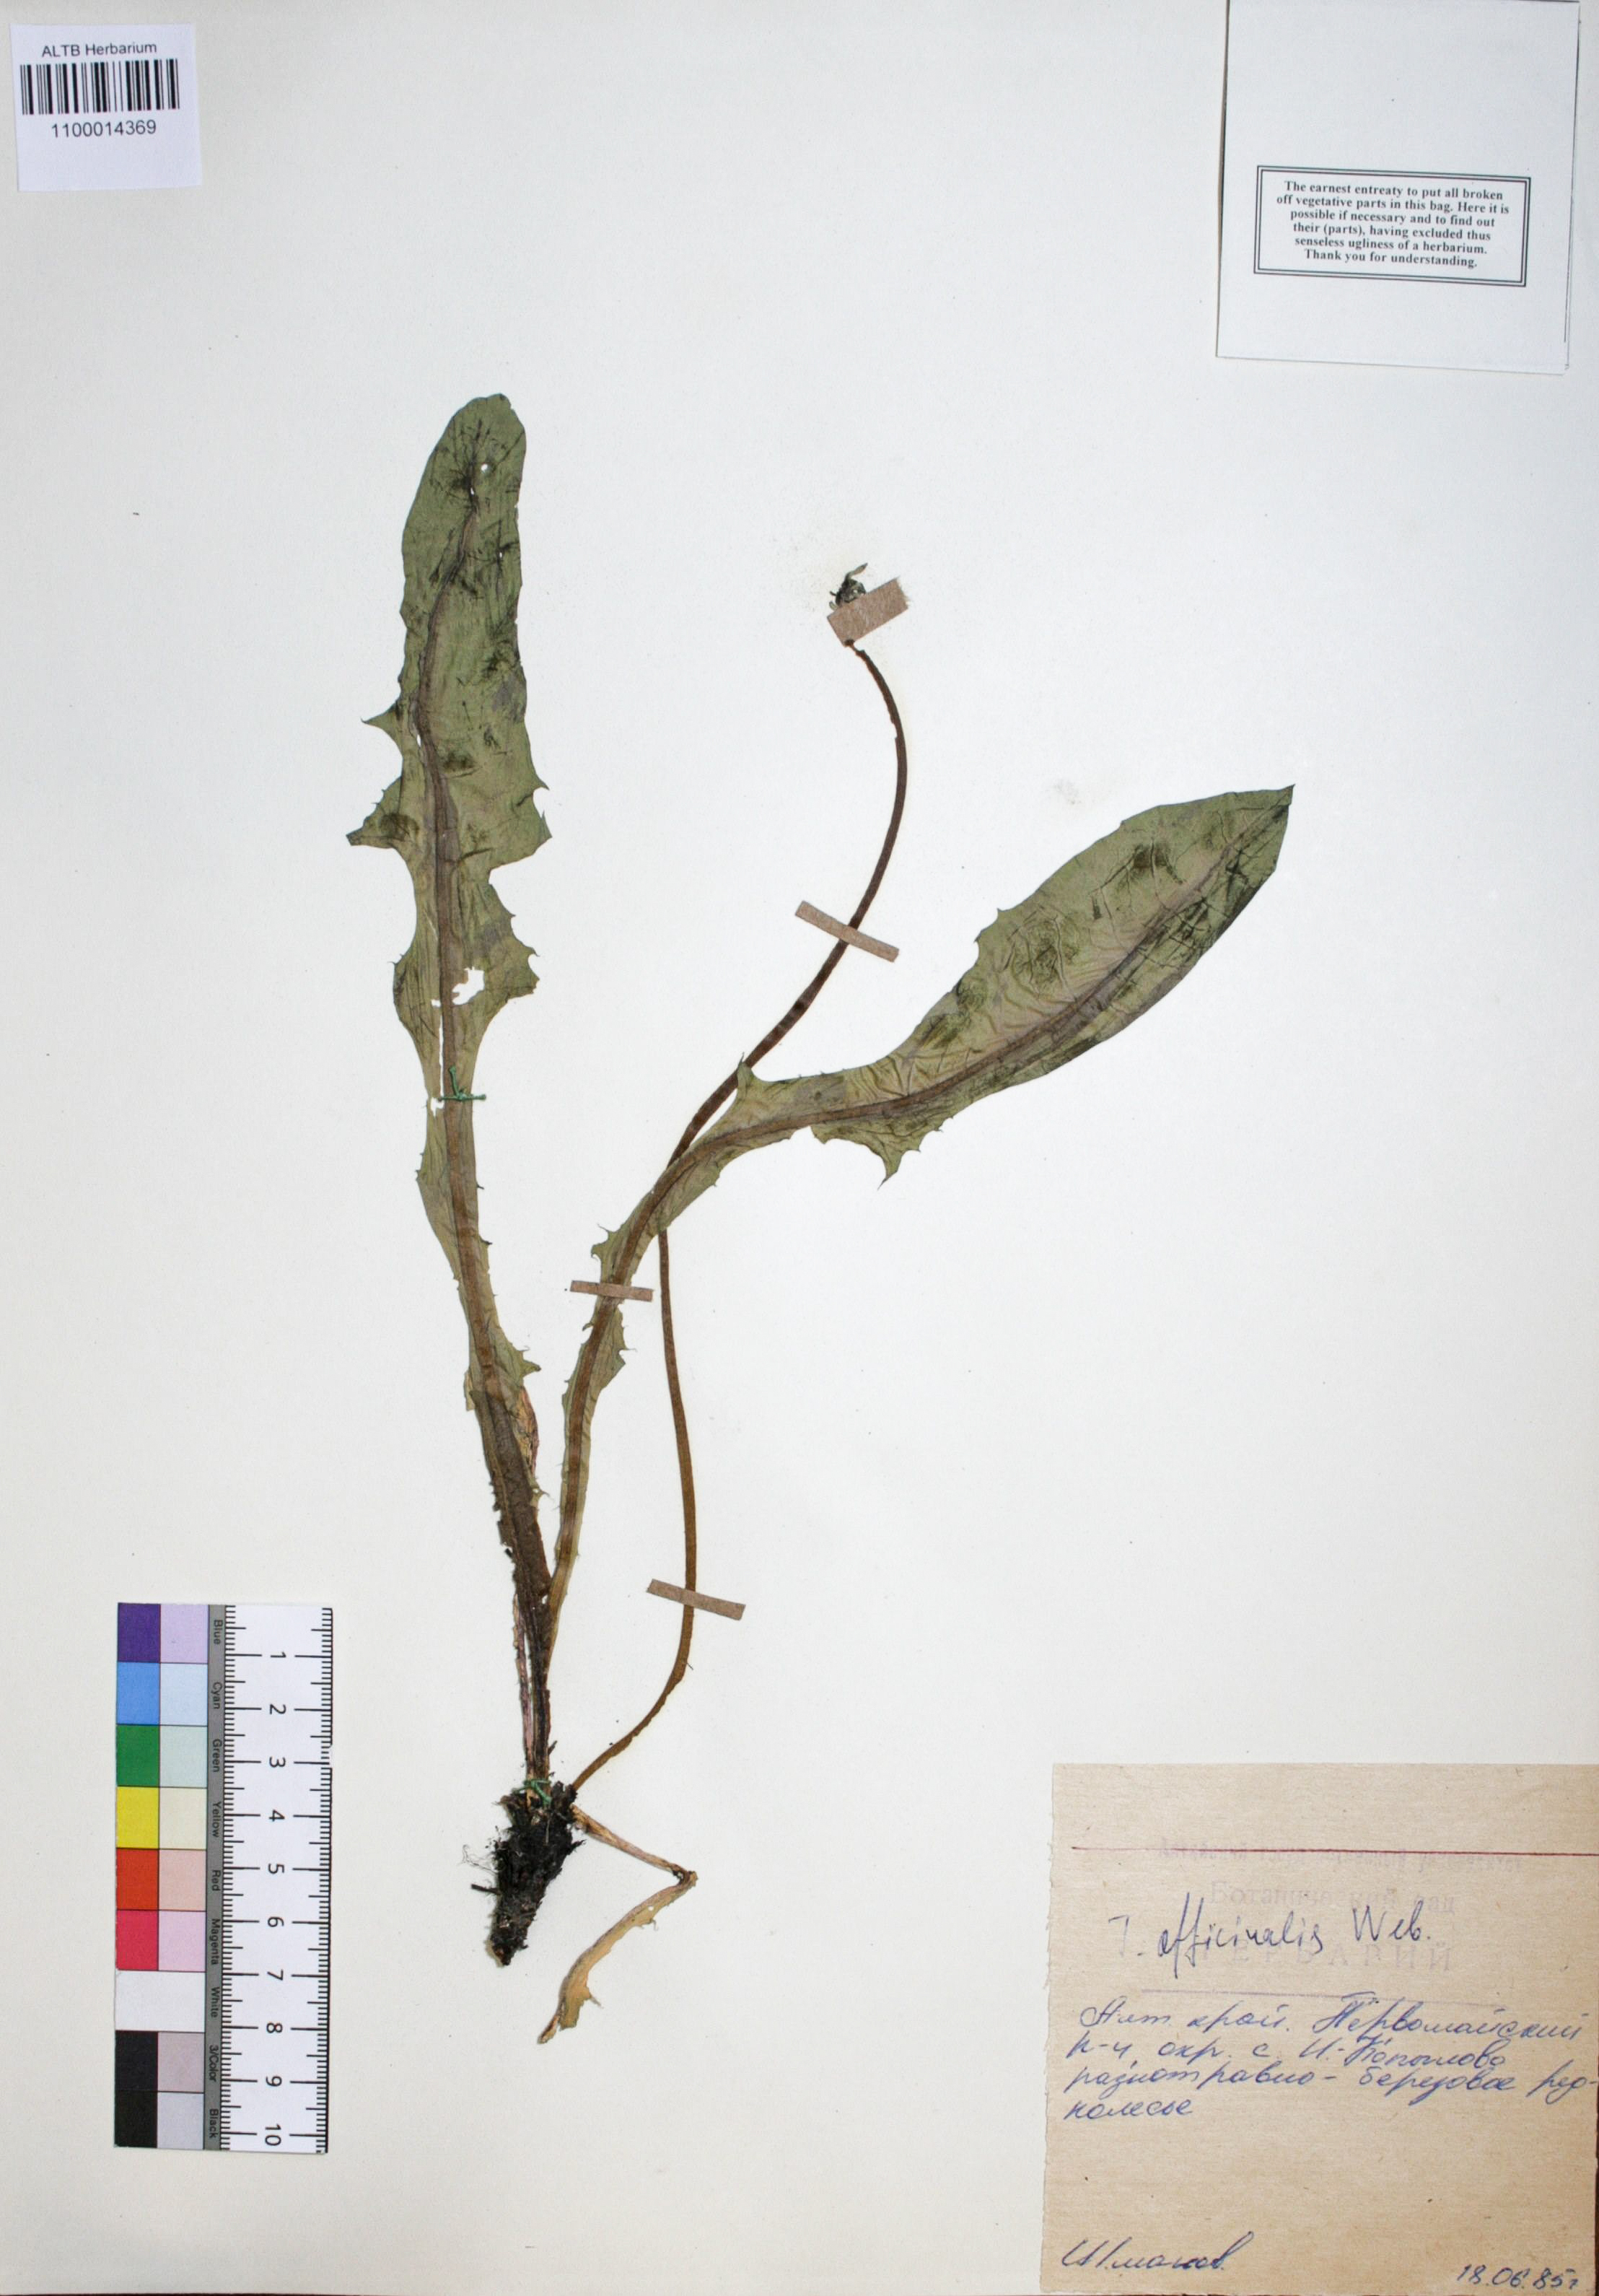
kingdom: Plantae
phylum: Tracheophyta
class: Magnoliopsida
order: Asterales
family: Asteraceae
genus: Taraxacum
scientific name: Taraxacum officinale
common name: Common dandelion
